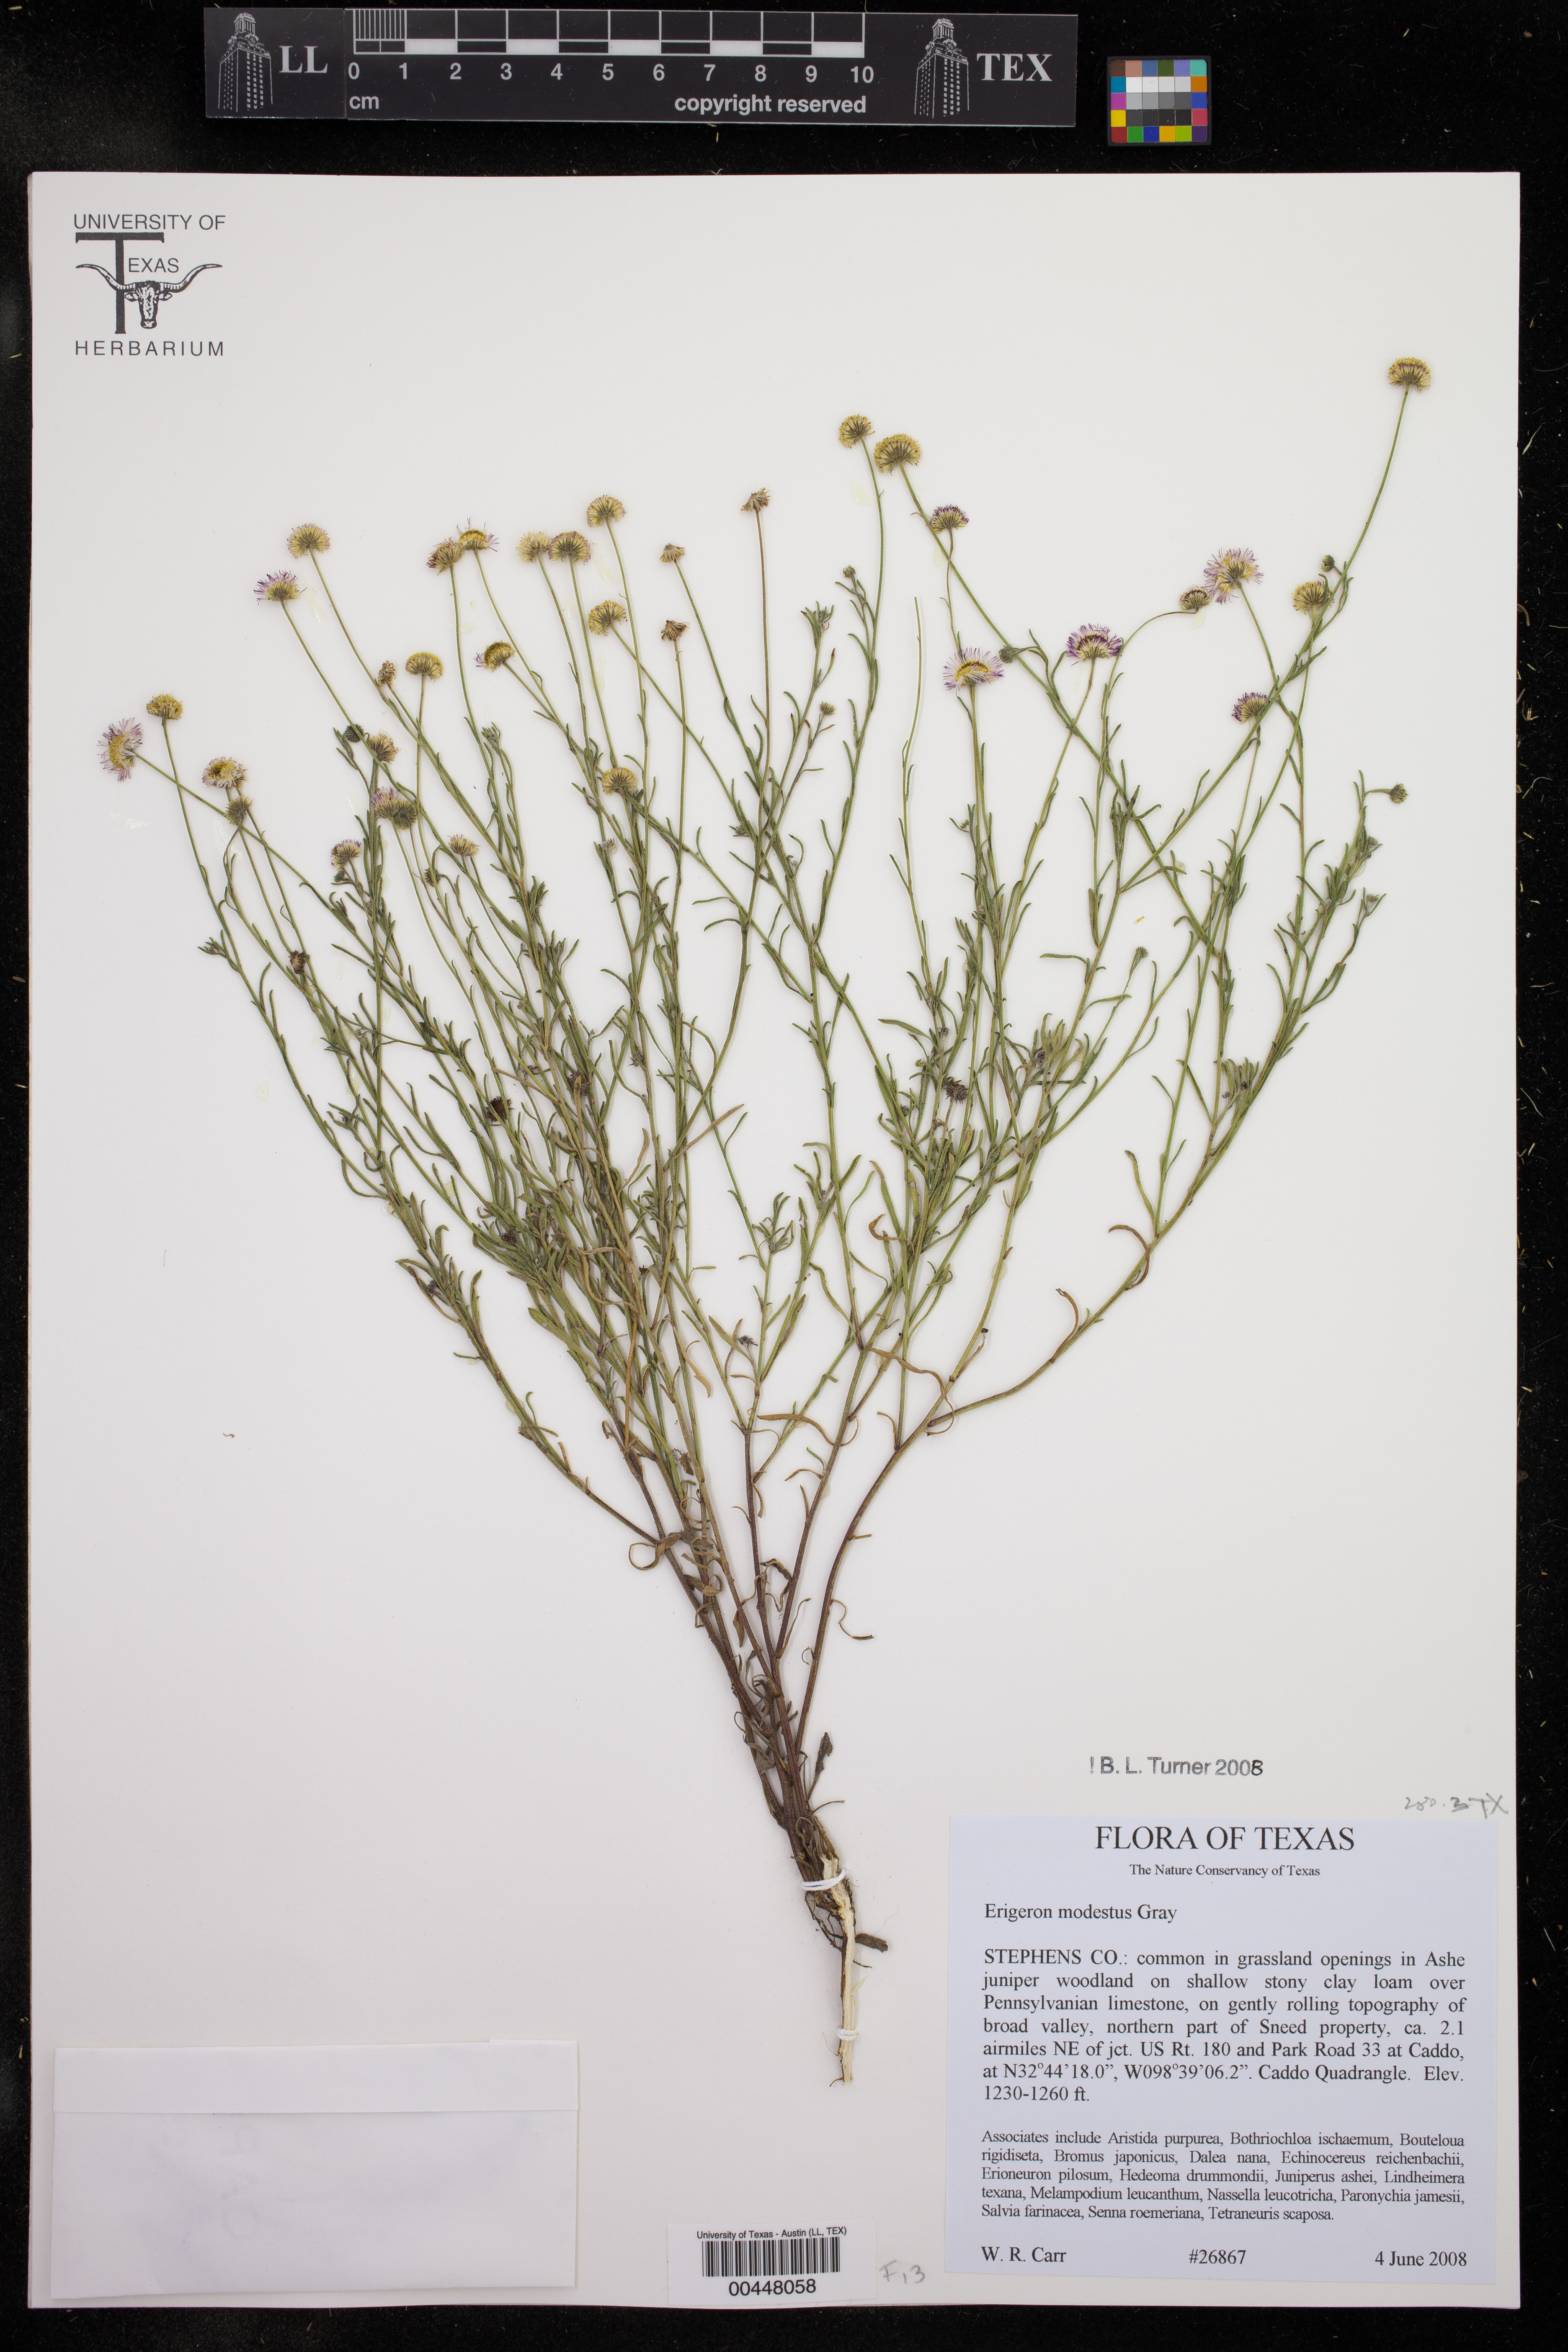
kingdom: Plantae
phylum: Tracheophyta
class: Magnoliopsida
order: Asterales
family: Asteraceae
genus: Erigeron
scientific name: Erigeron modestus
